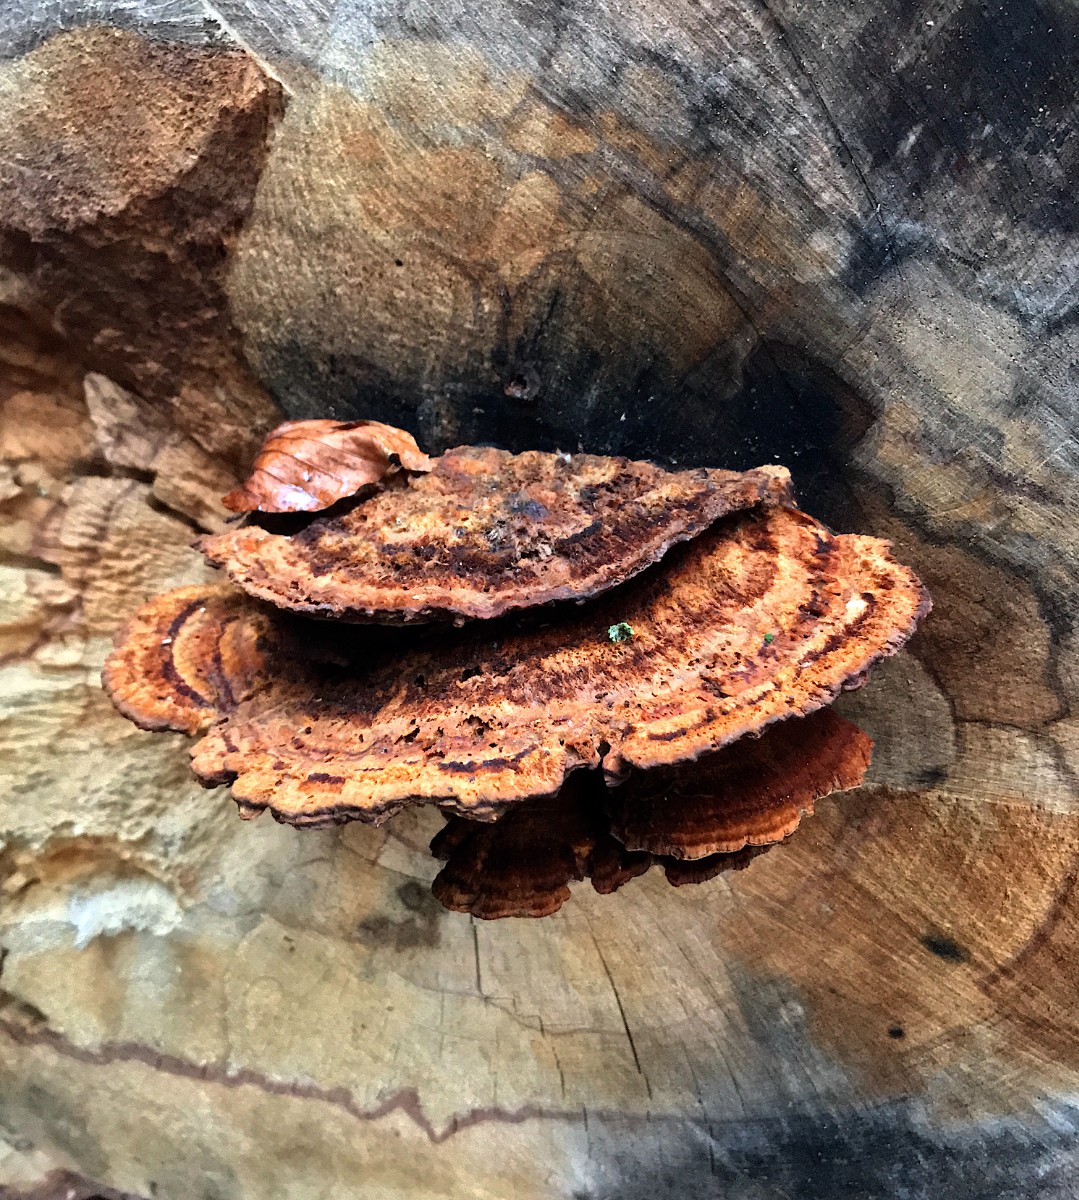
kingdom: Fungi
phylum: Basidiomycota
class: Agaricomycetes
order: Hymenochaetales
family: Hymenochaetaceae
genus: Inonotus
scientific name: Inonotus cuticularis
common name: kroghåret spejlporesvamp
